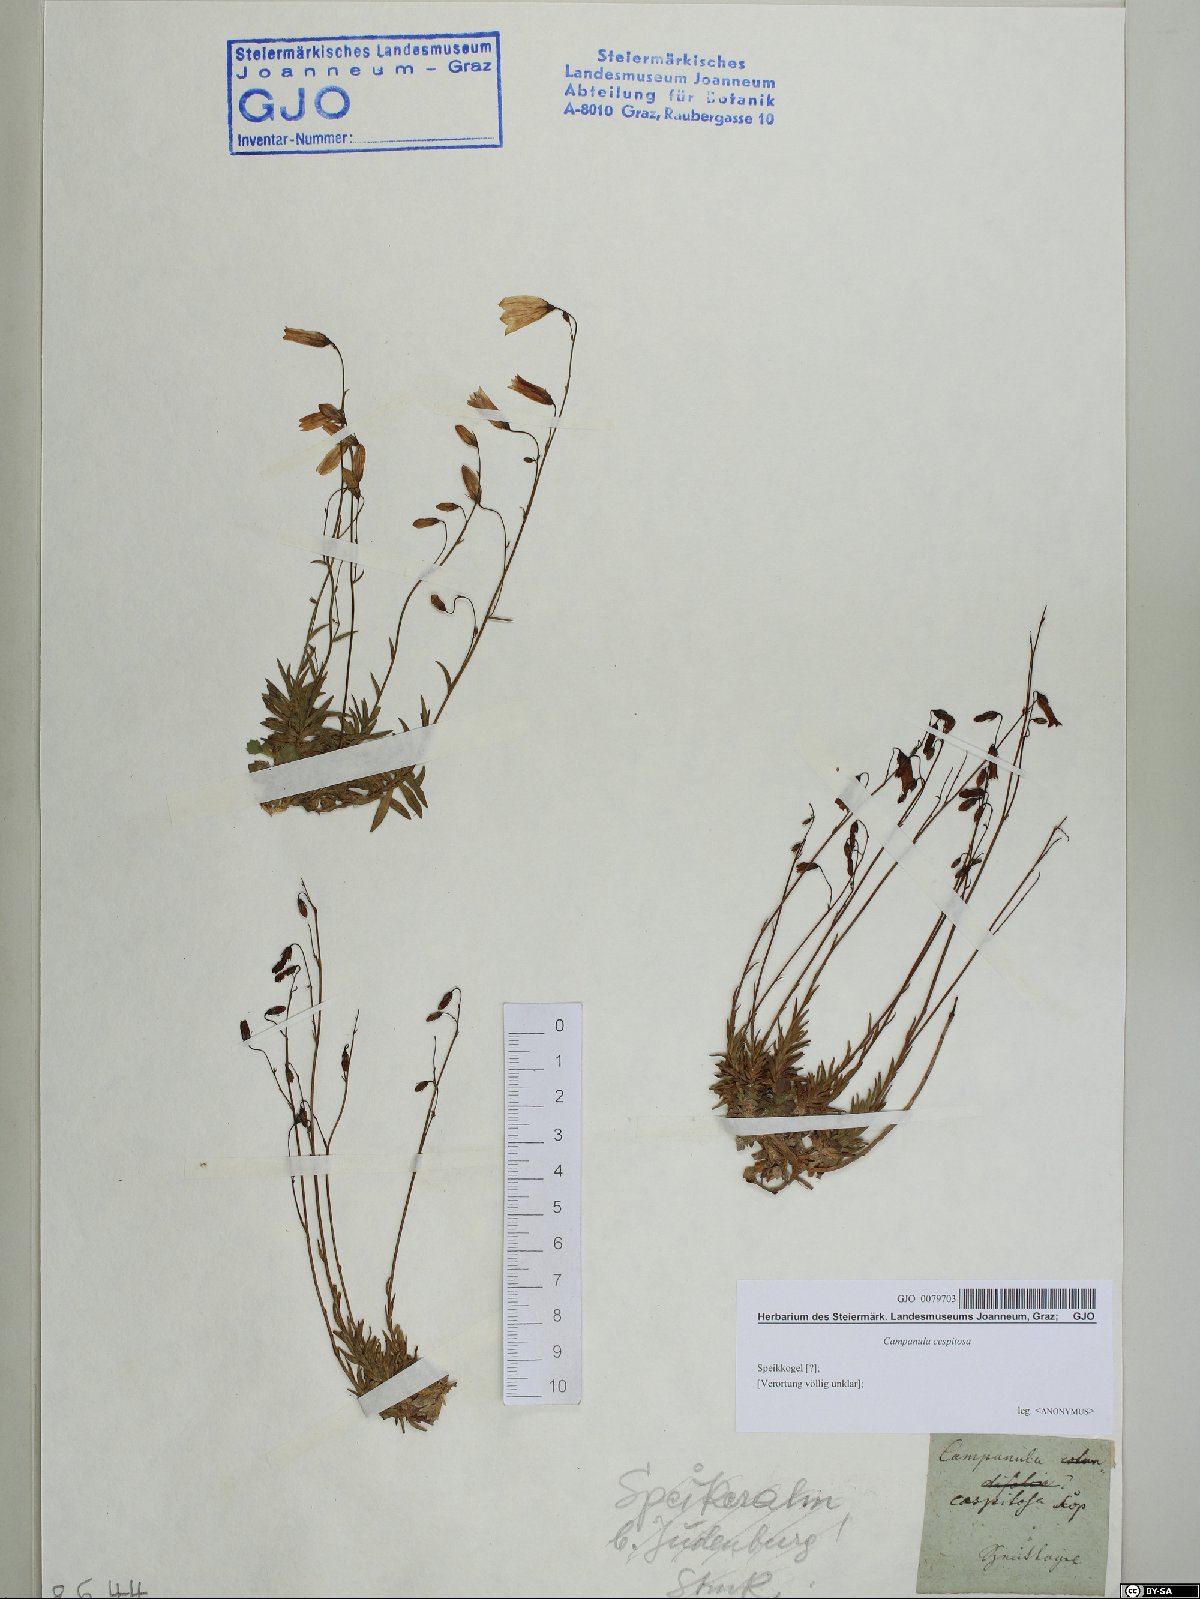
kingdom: Plantae
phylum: Tracheophyta
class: Magnoliopsida
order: Asterales
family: Campanulaceae
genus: Campanula
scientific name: Campanula cespitosa
